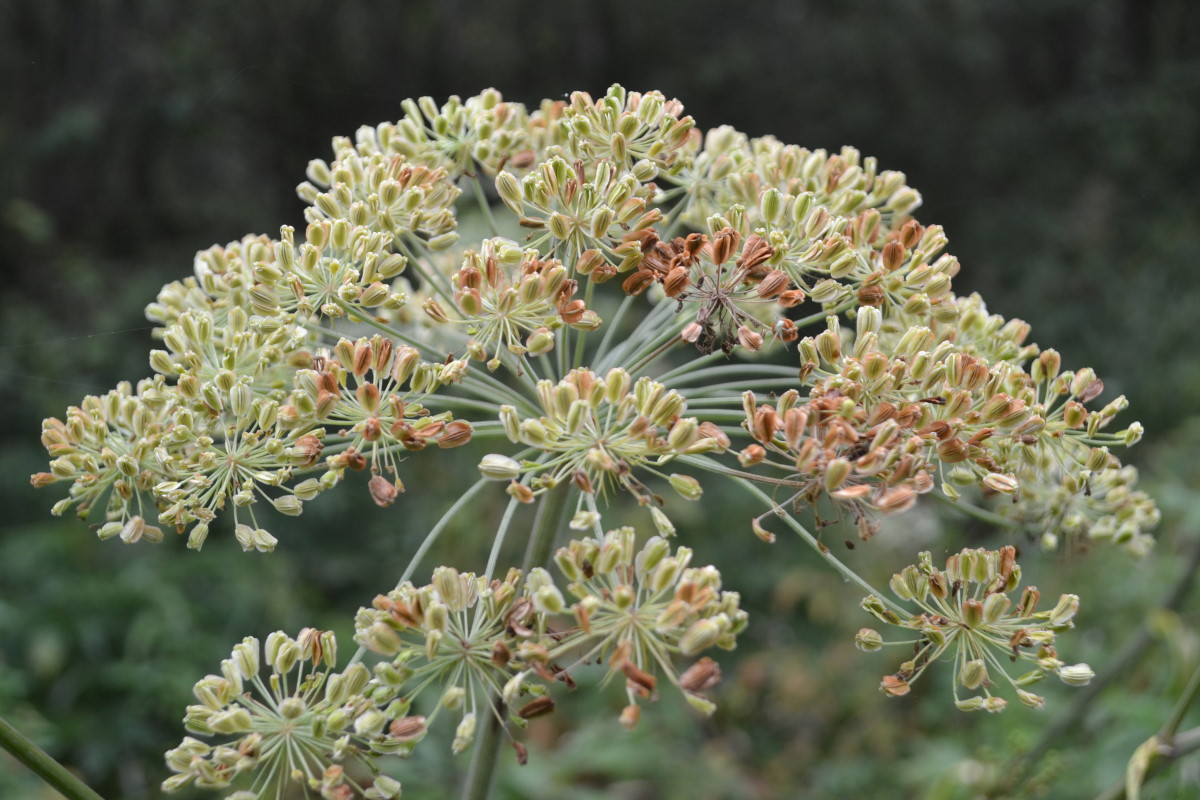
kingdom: Plantae
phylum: Tracheophyta
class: Magnoliopsida
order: Apiales
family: Apiaceae
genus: Angelica
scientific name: Angelica sylvestris
